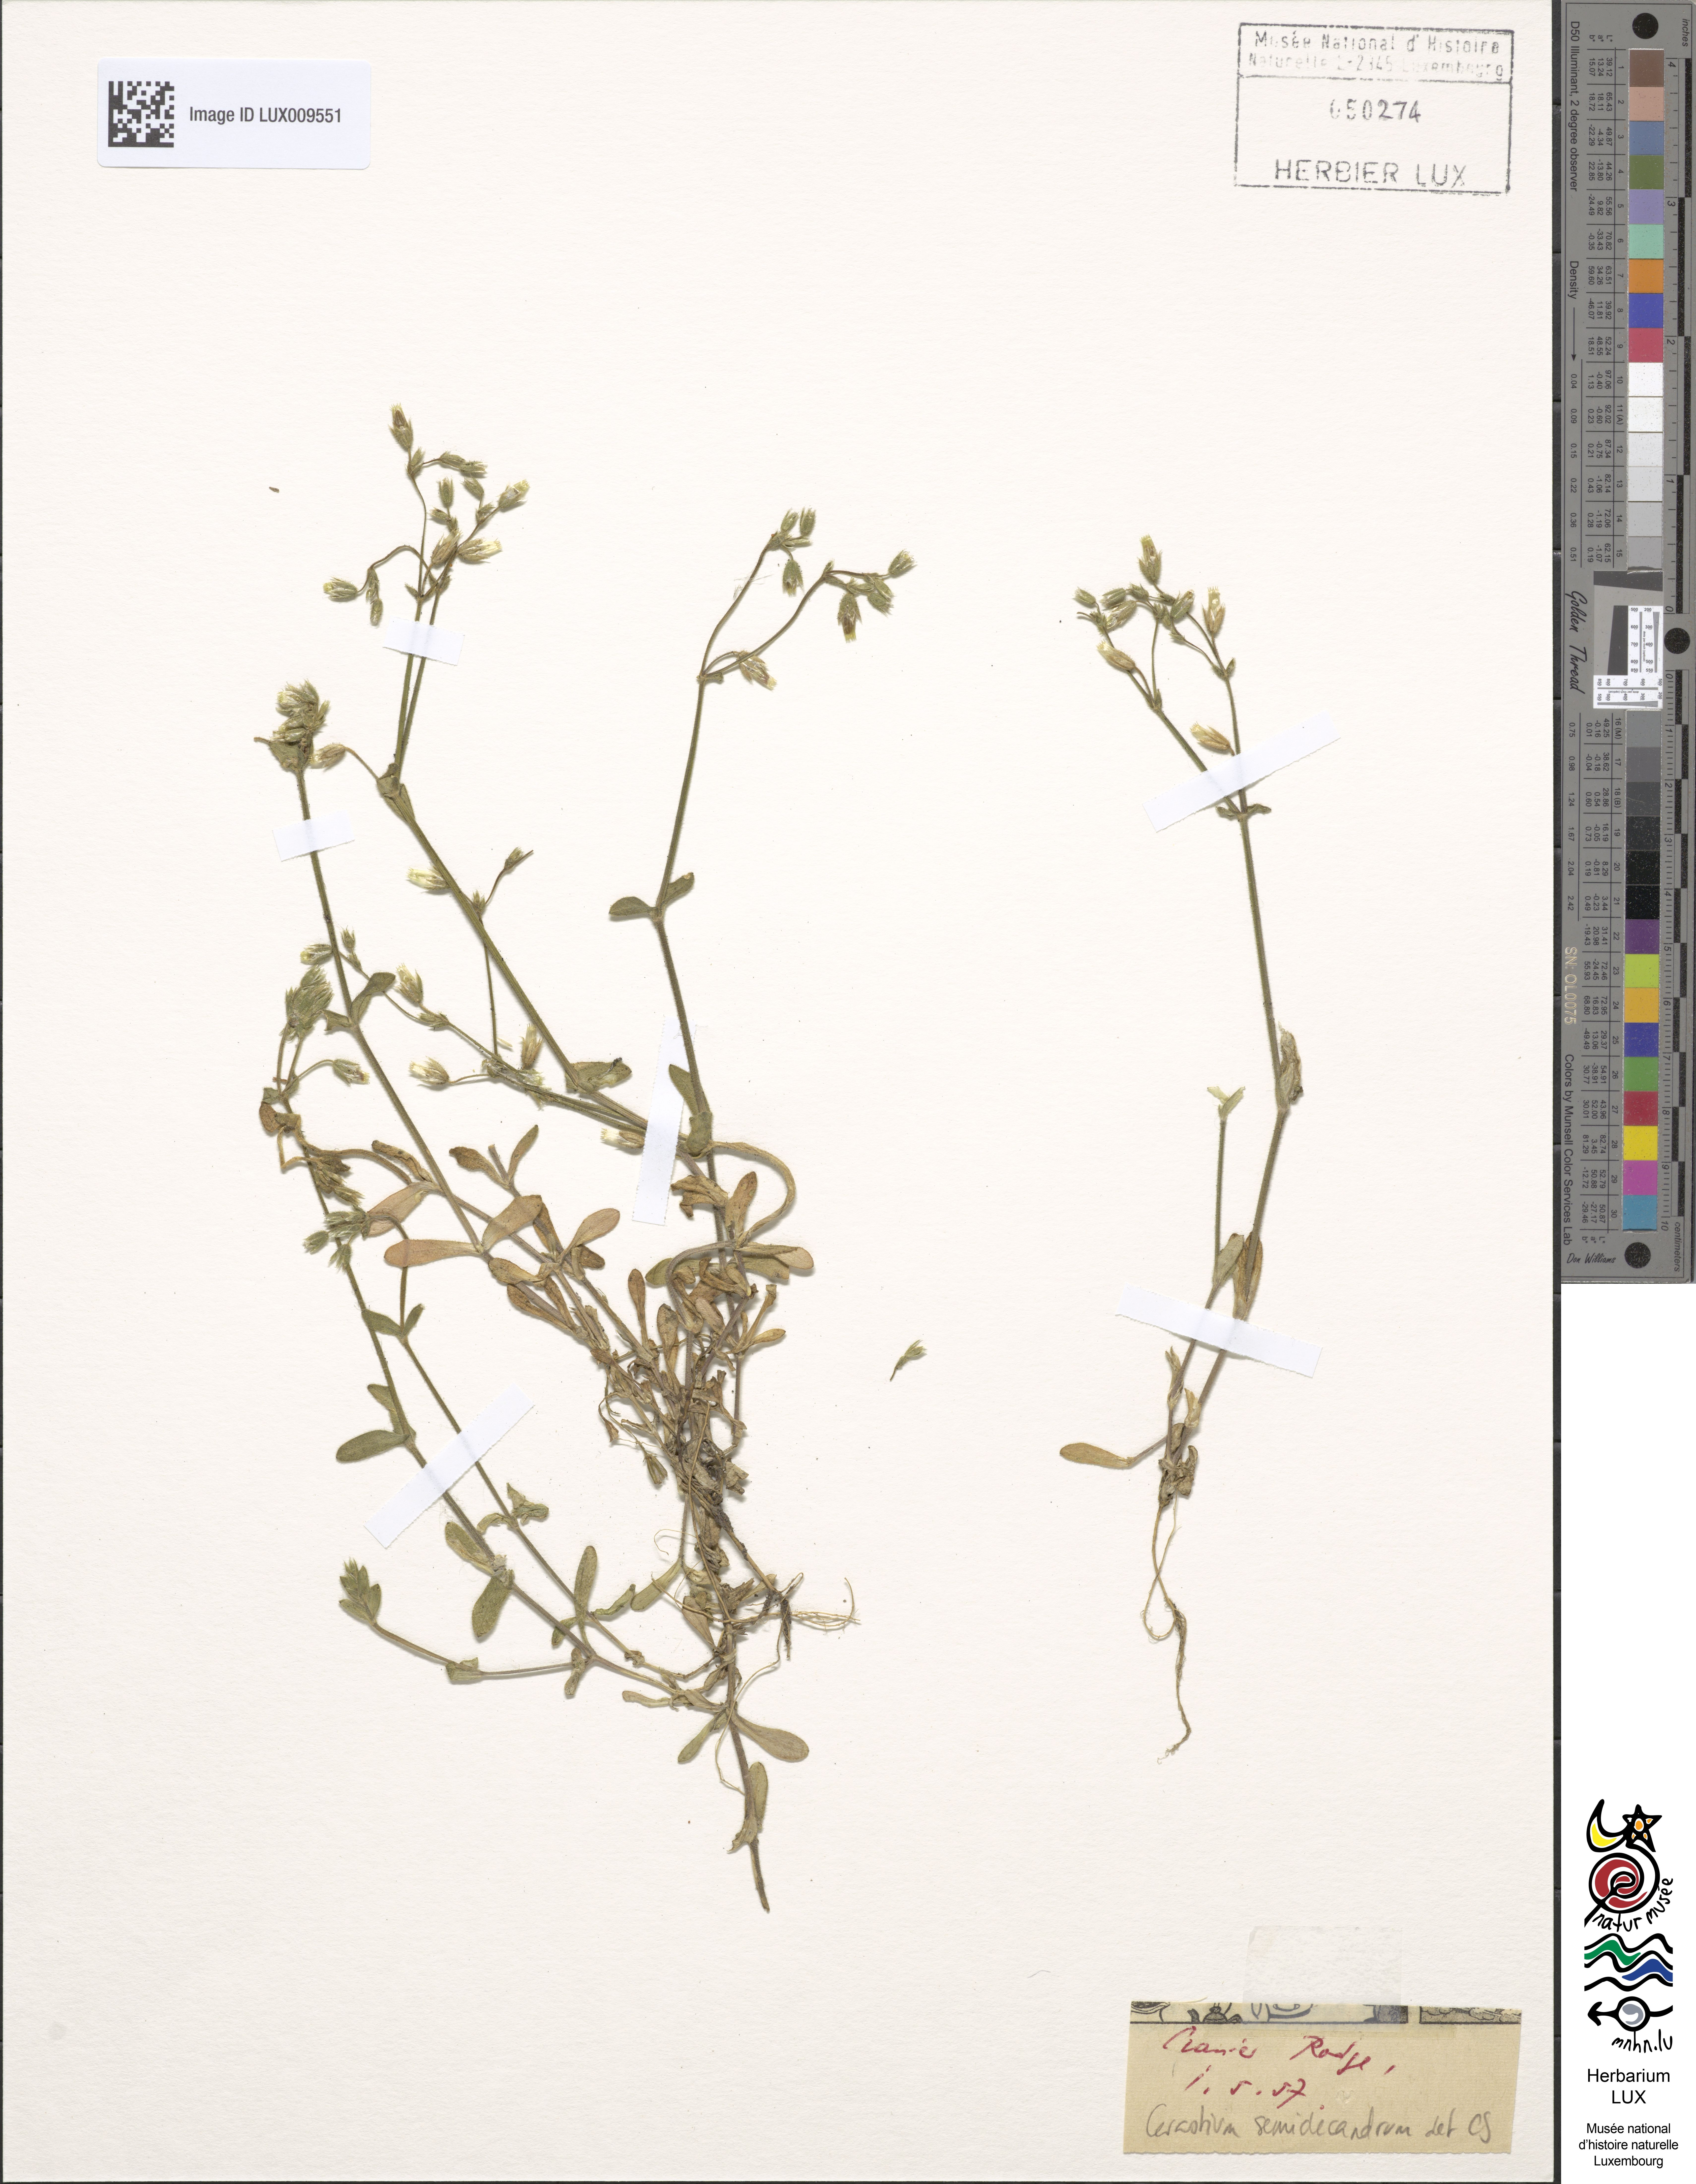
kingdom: Plantae
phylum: Tracheophyta
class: Magnoliopsida
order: Caryophyllales
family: Caryophyllaceae
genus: Cerastium
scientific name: Cerastium semidecandrum
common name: Little mouse-ear
